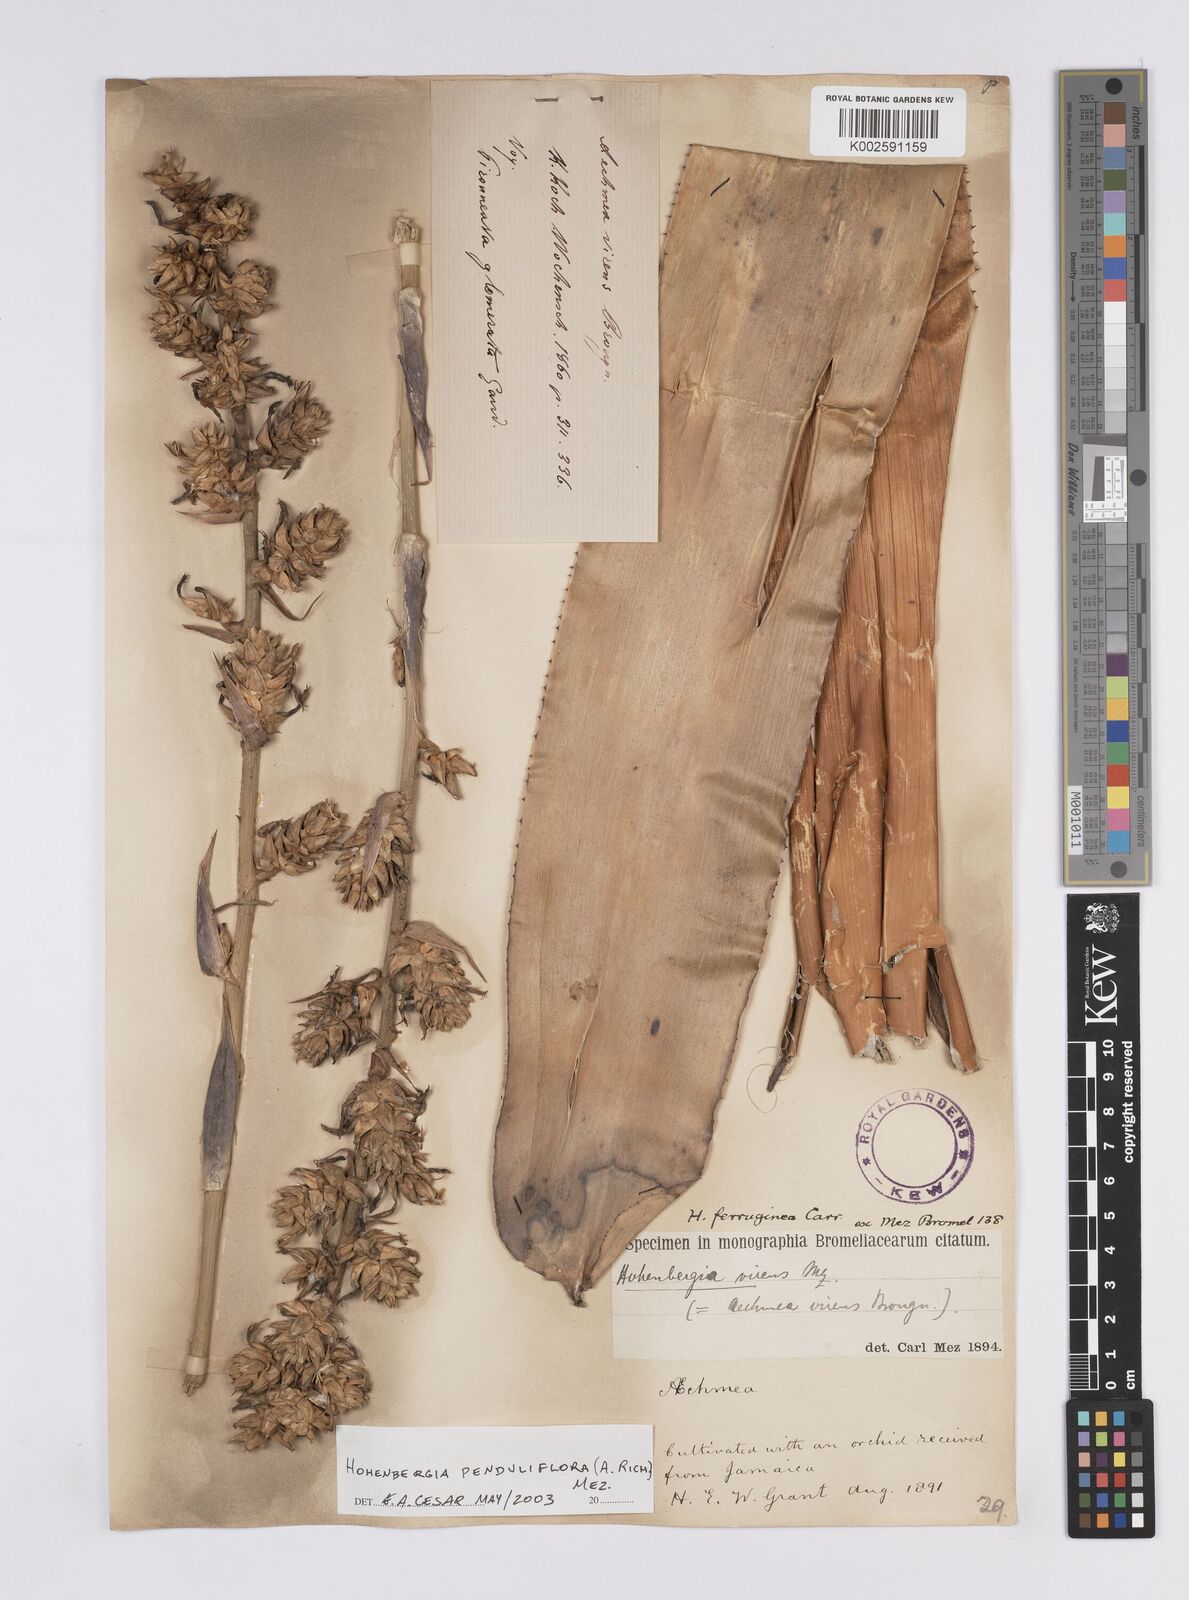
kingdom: Plantae
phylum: Tracheophyta
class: Liliopsida
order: Poales
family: Bromeliaceae
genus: Wittmackia
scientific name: Wittmackia penduliflora
